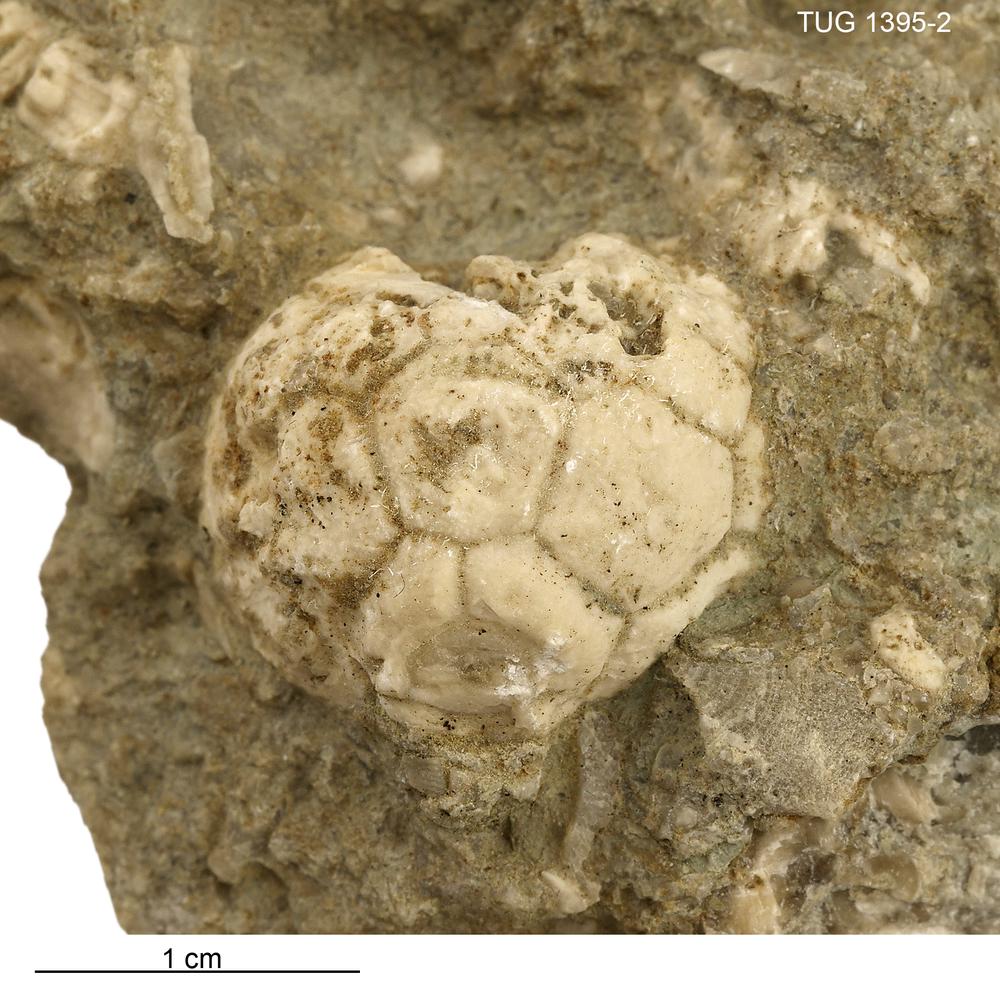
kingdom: Animalia
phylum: Echinodermata
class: Crinoidea
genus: Methabocrinus
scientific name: Methabocrinus
